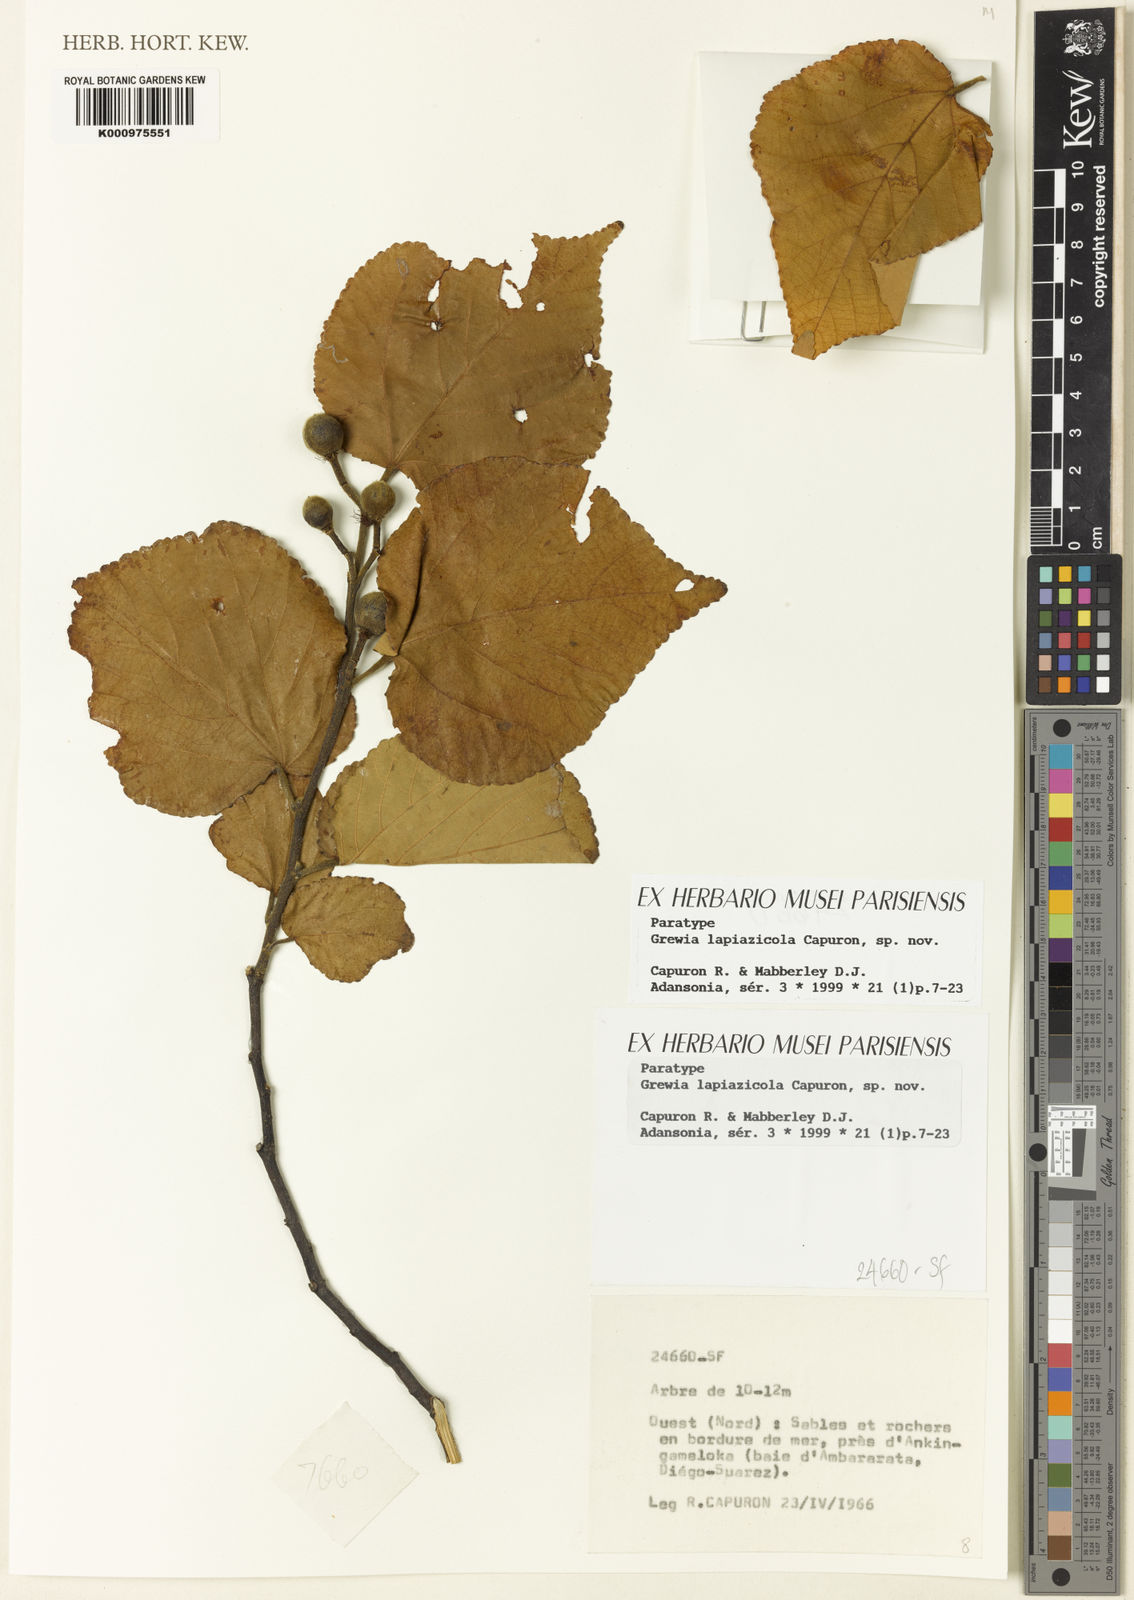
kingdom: Plantae
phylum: Tracheophyta
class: Magnoliopsida
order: Malvales
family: Malvaceae
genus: Grewia
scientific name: Grewia lapiazicola
